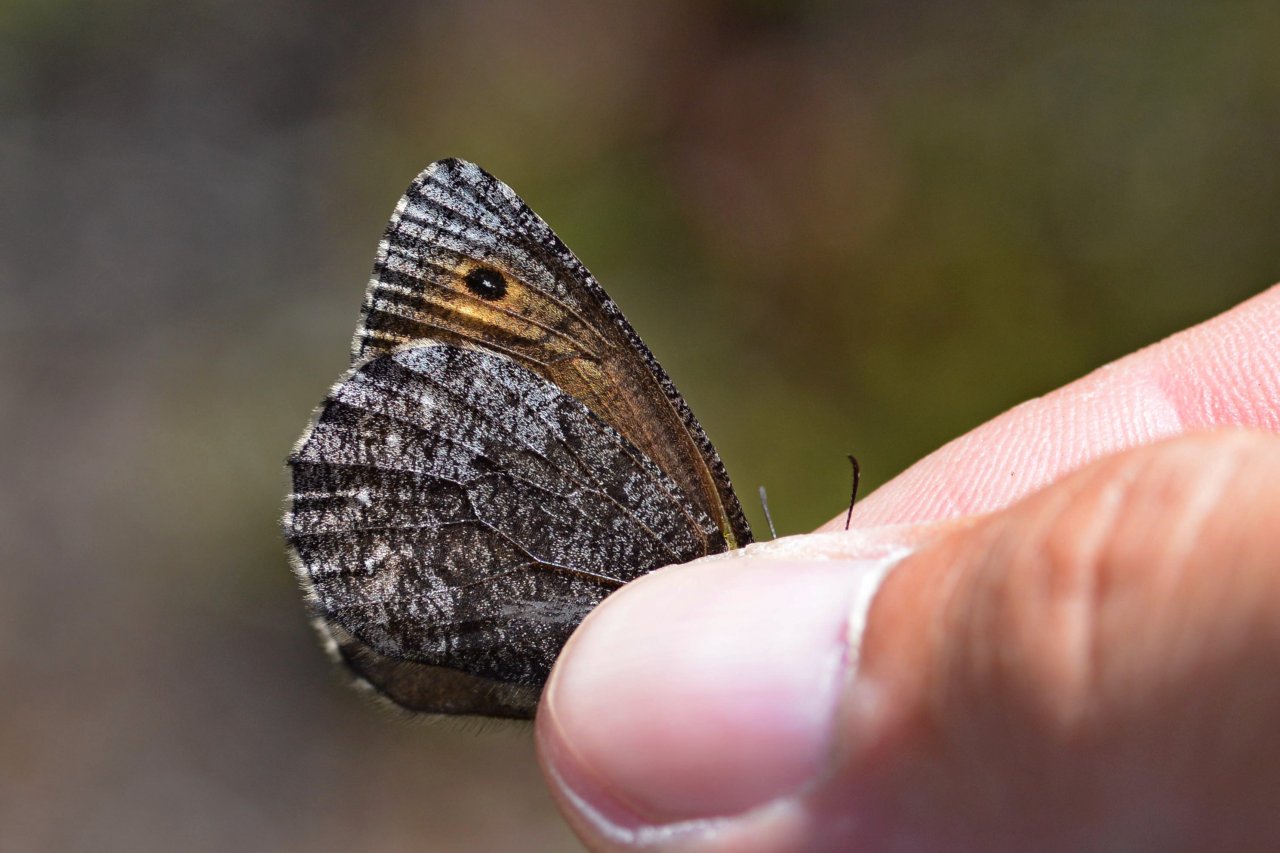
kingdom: Animalia
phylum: Arthropoda
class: Insecta
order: Lepidoptera
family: Nymphalidae
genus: Oeneis
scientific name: Oeneis jutta
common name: Jutta Arctic
